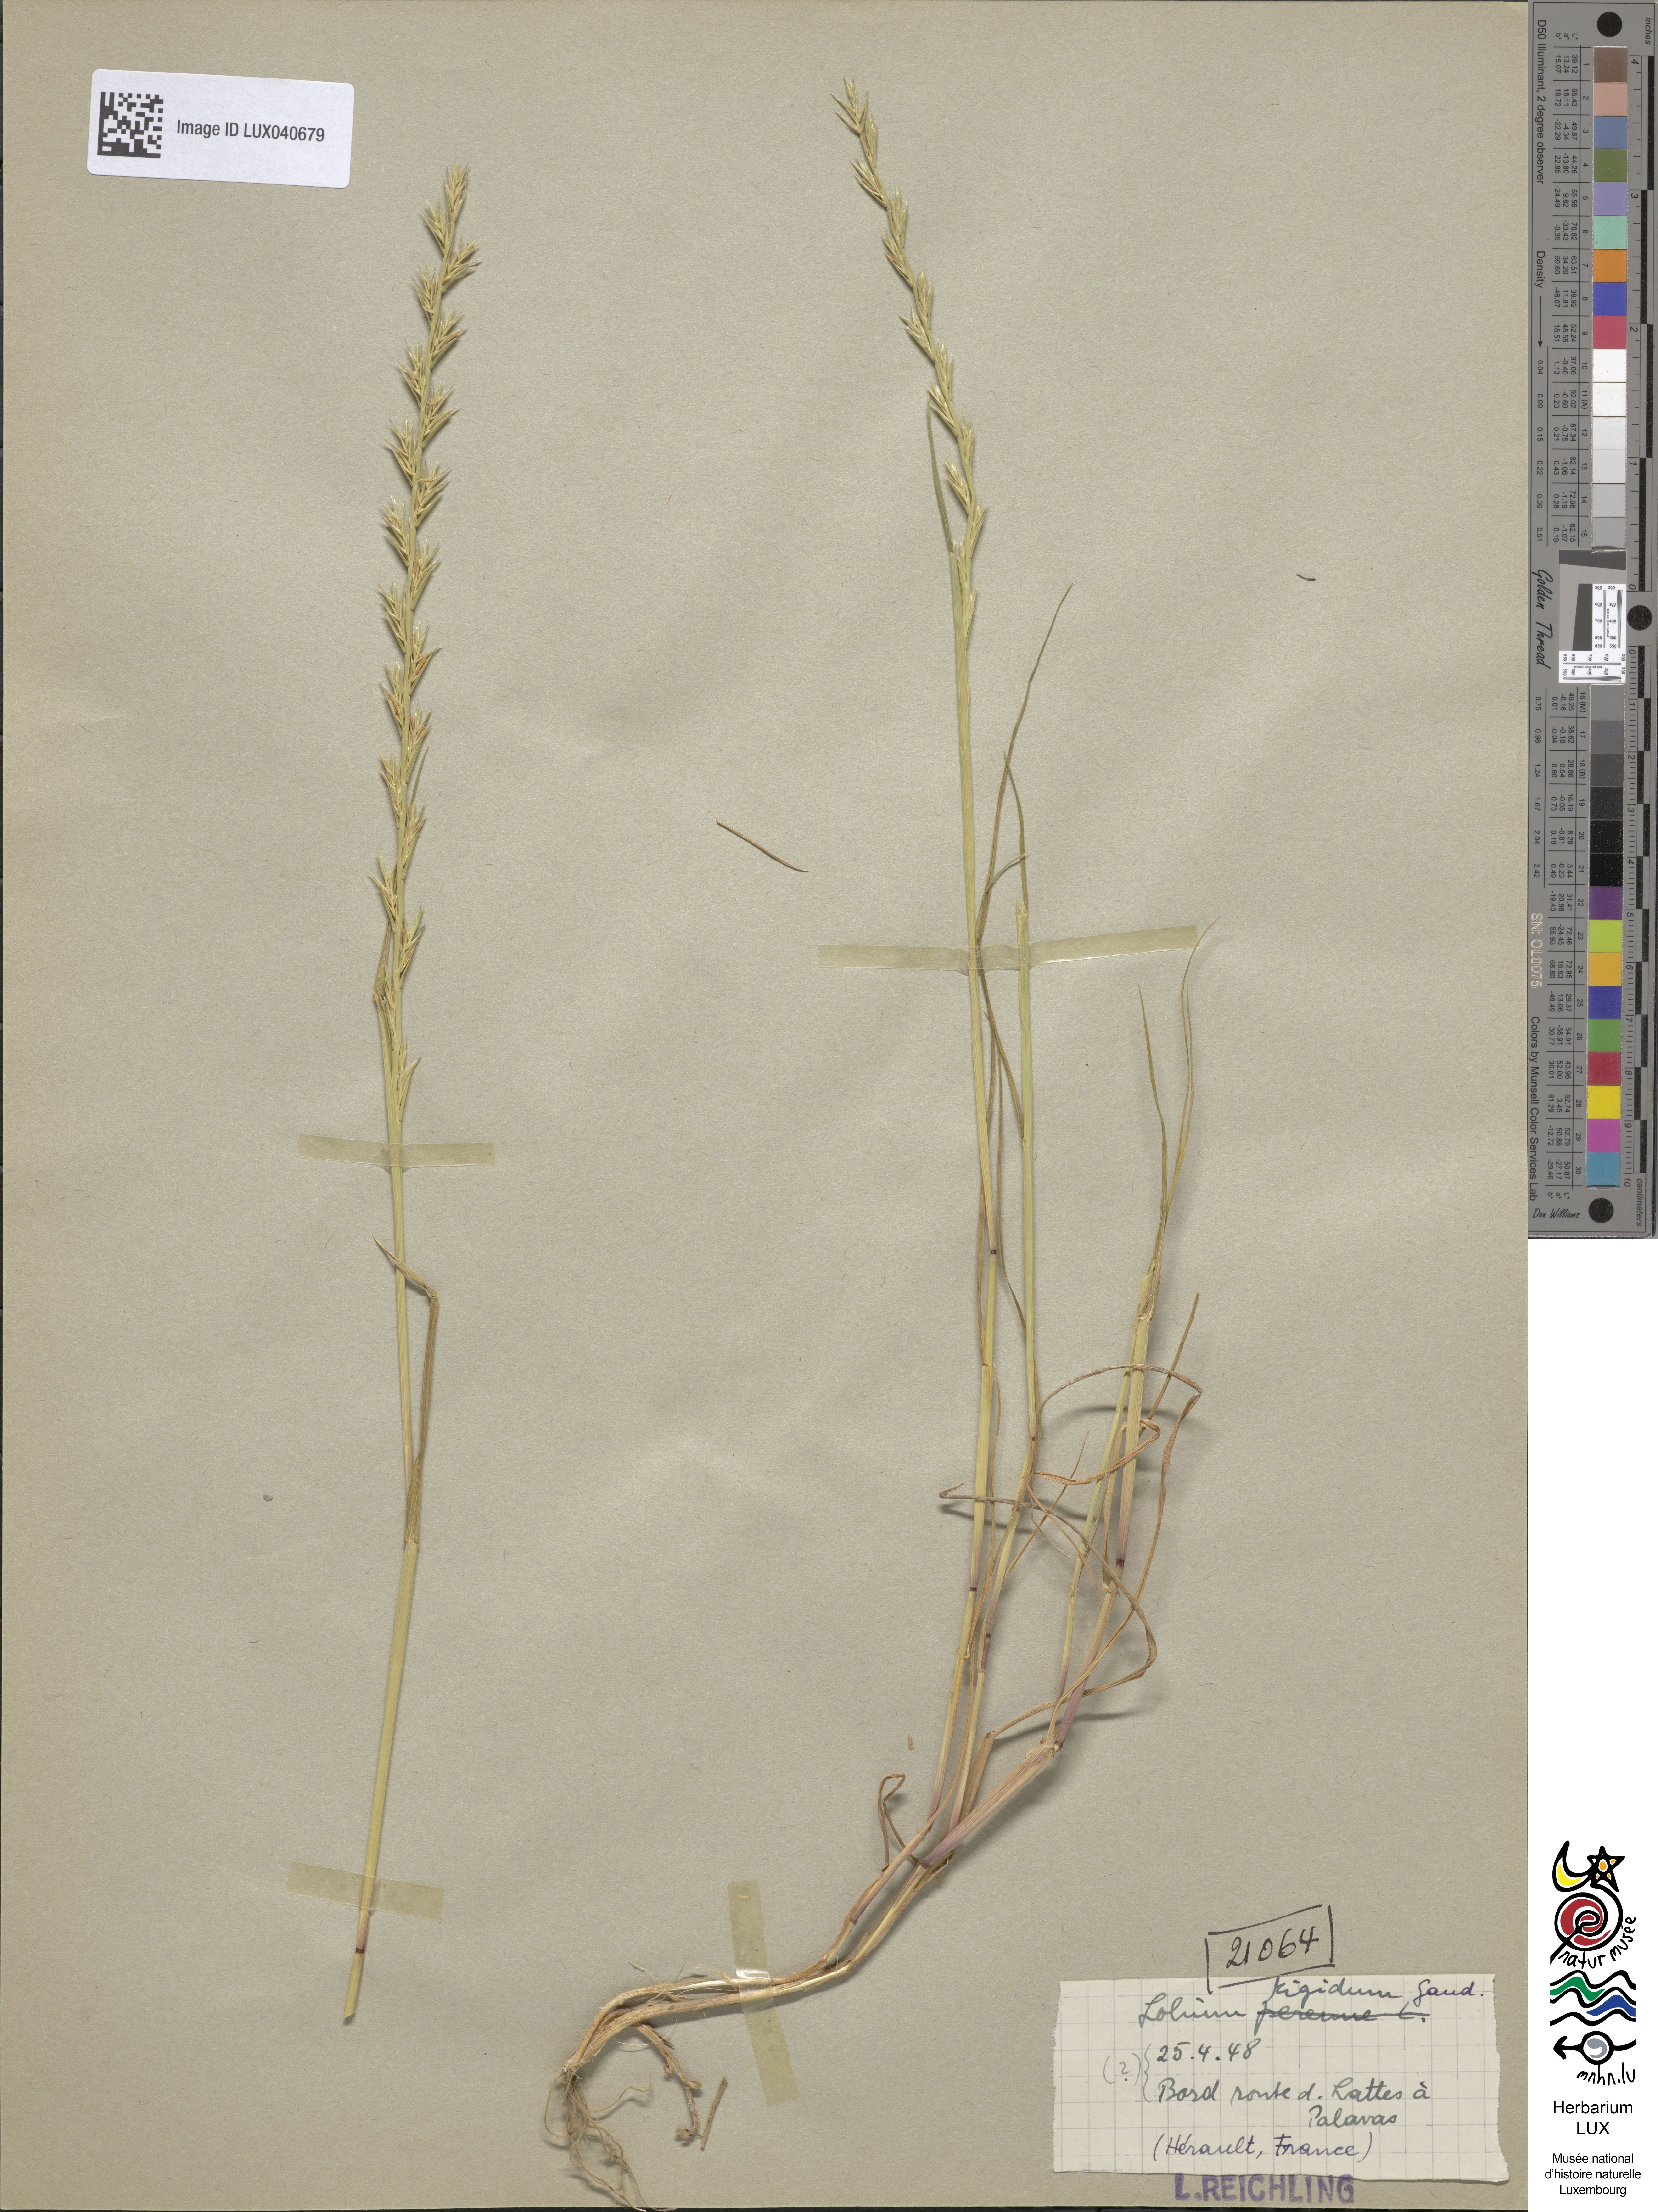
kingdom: Plantae
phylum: Tracheophyta
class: Liliopsida
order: Poales
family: Poaceae
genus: Lolium
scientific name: Lolium rigidum
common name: Wimmera ryegrass
